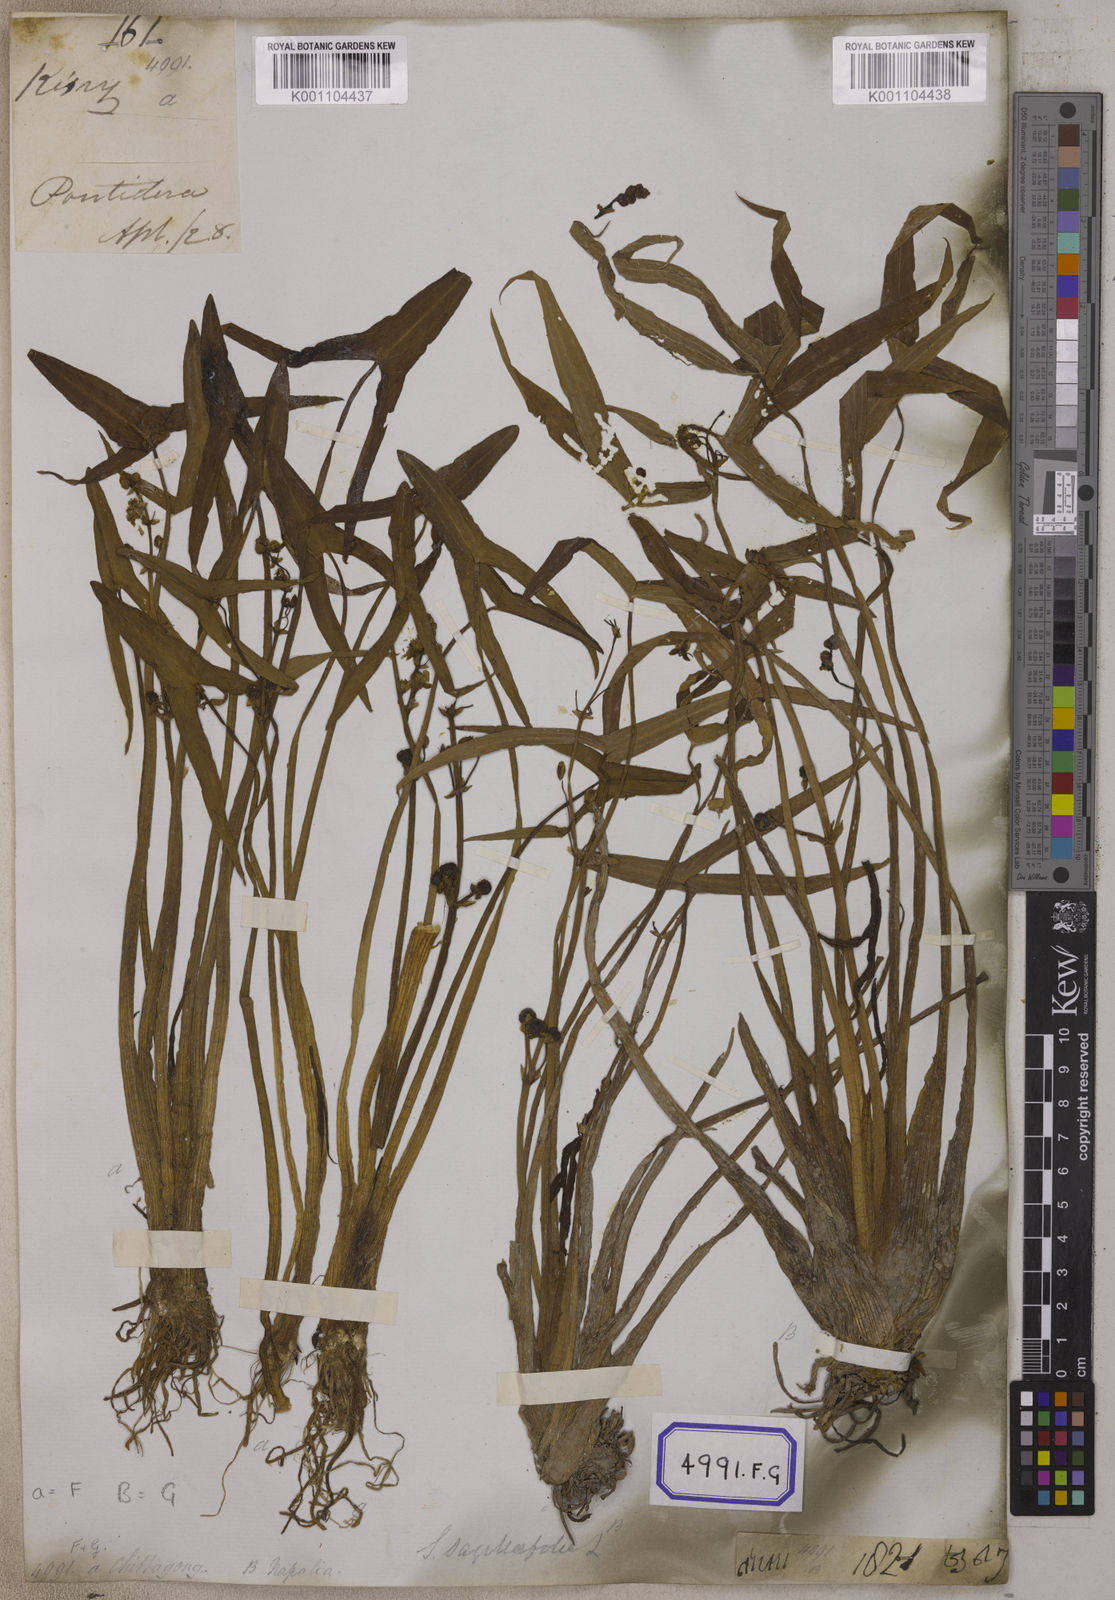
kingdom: Plantae
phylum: Tracheophyta
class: Liliopsida
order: Alismatales
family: Alismataceae
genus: Sagittaria
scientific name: Sagittaria sagittifolia
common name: Arrowhead
